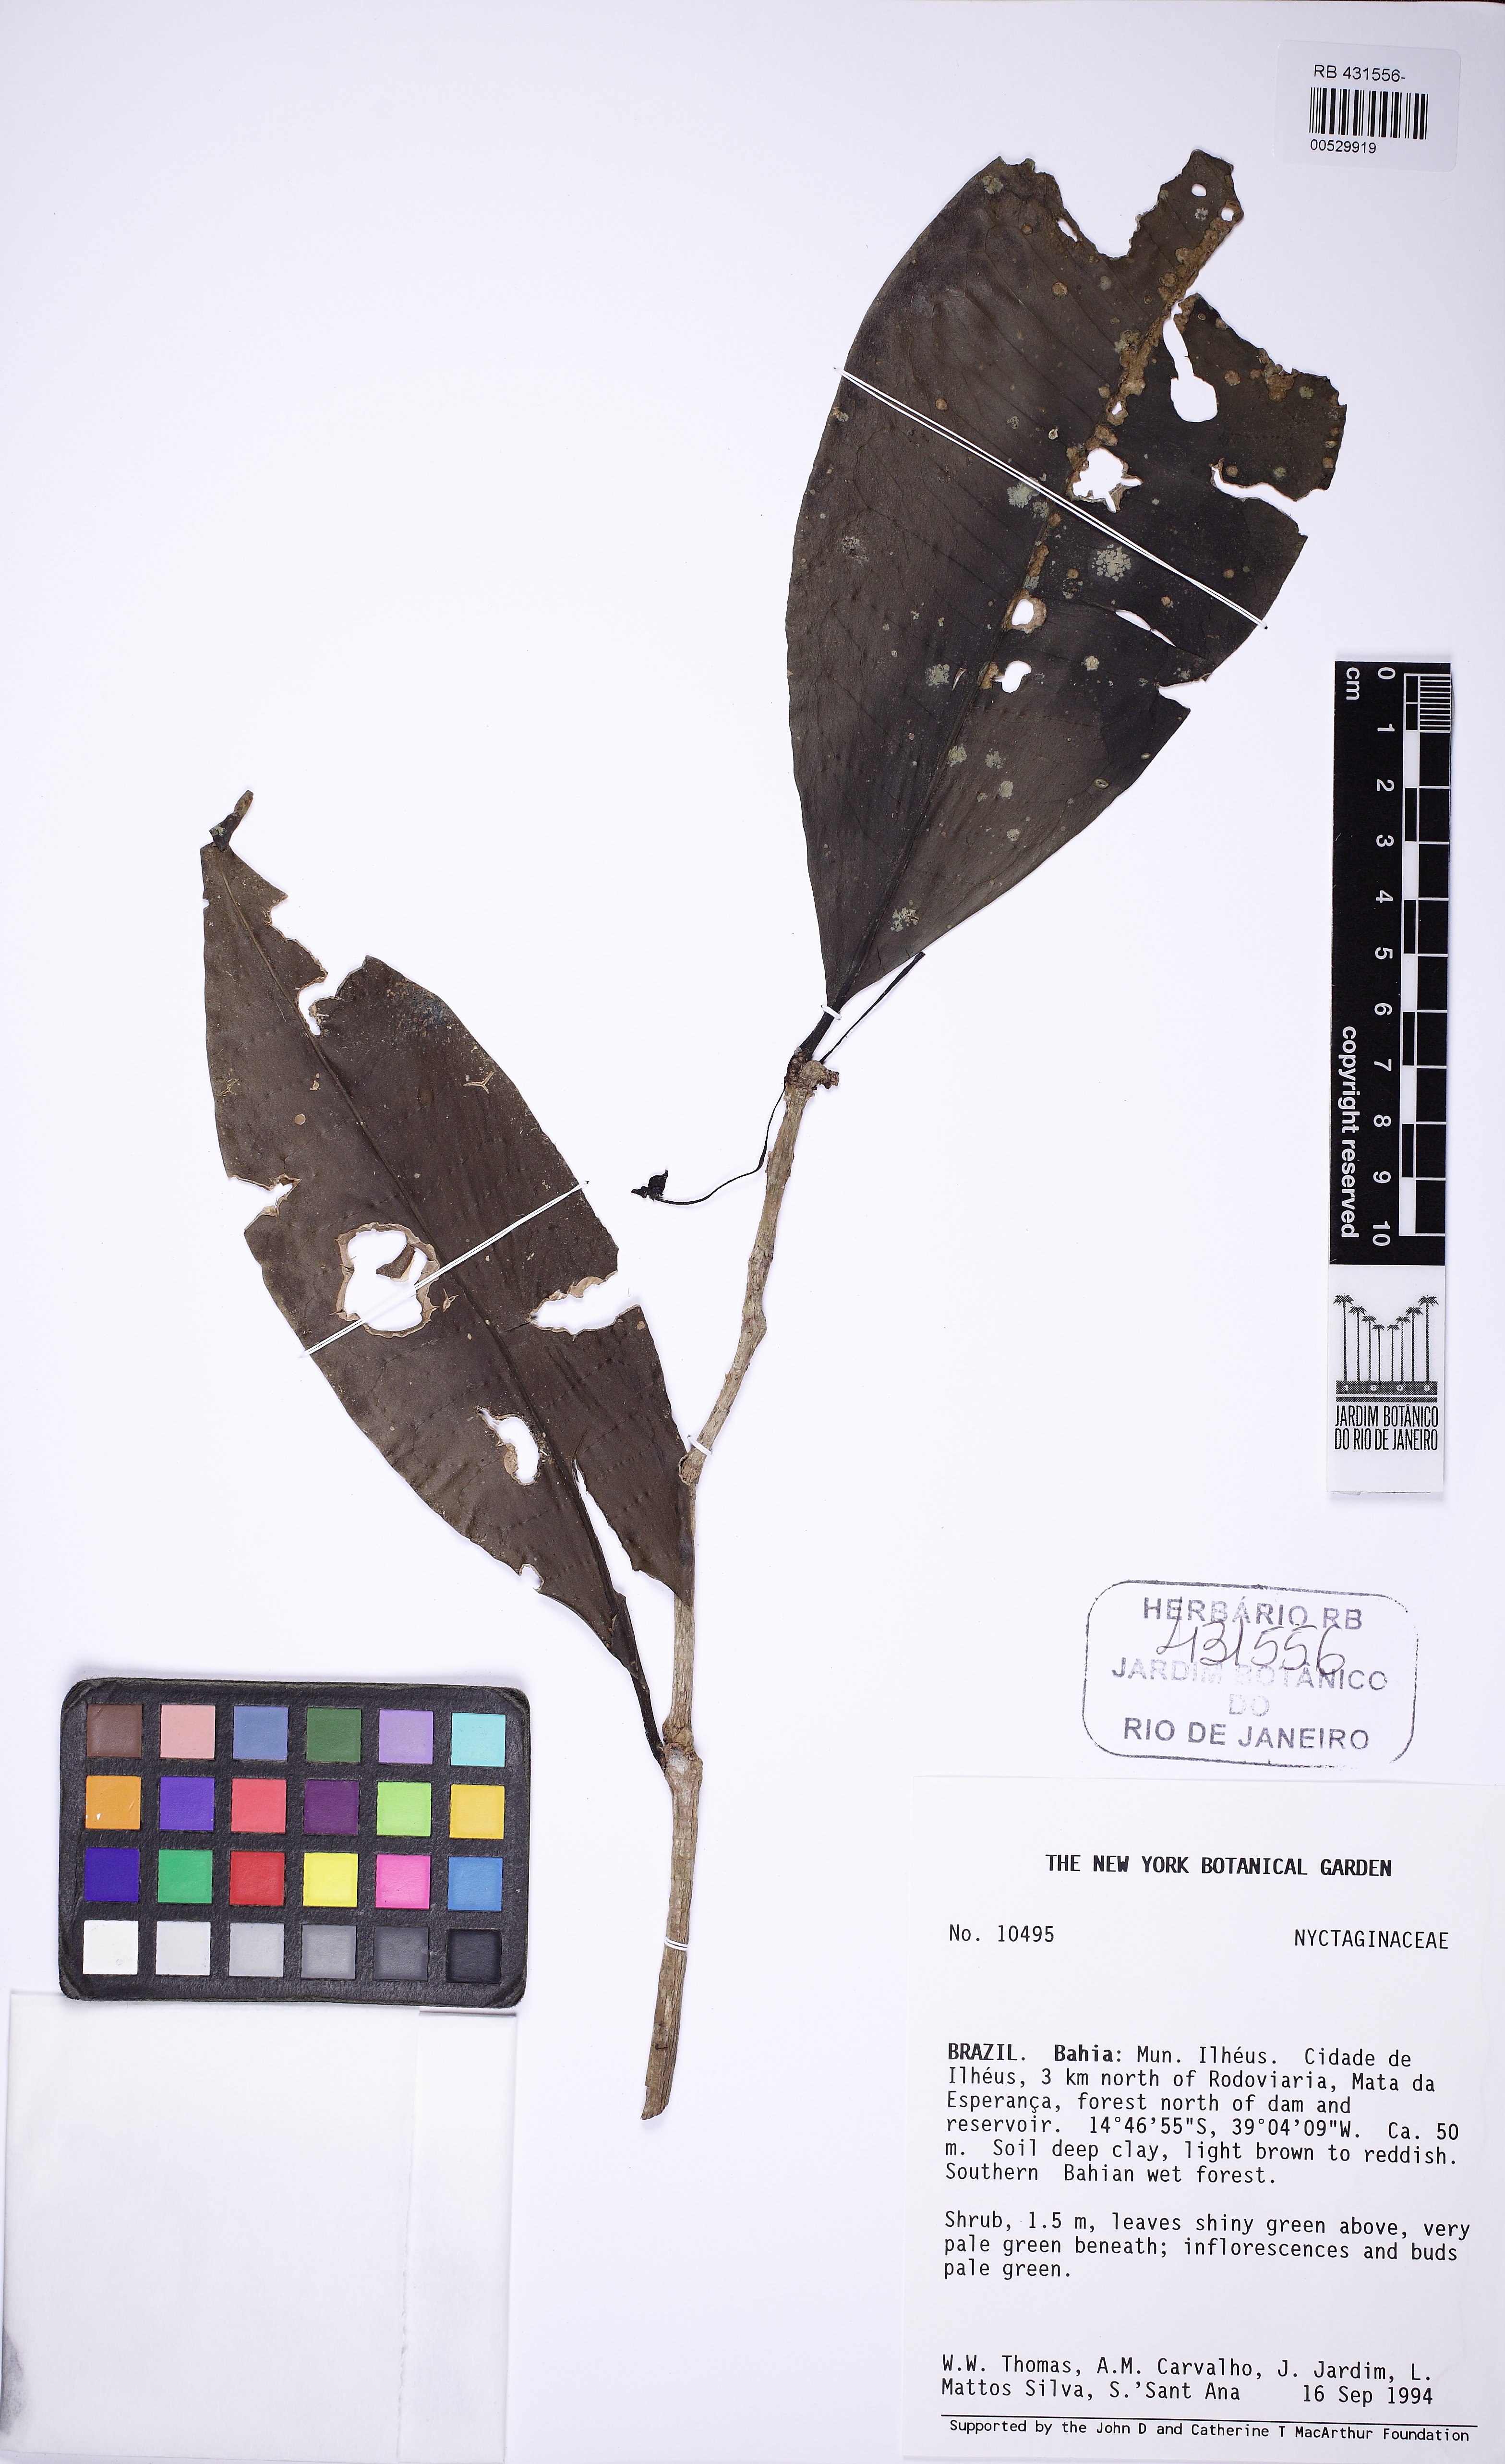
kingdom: Plantae
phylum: Tracheophyta
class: Magnoliopsida
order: Caryophyllales
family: Nyctaginaceae
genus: Neea
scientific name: Neea
